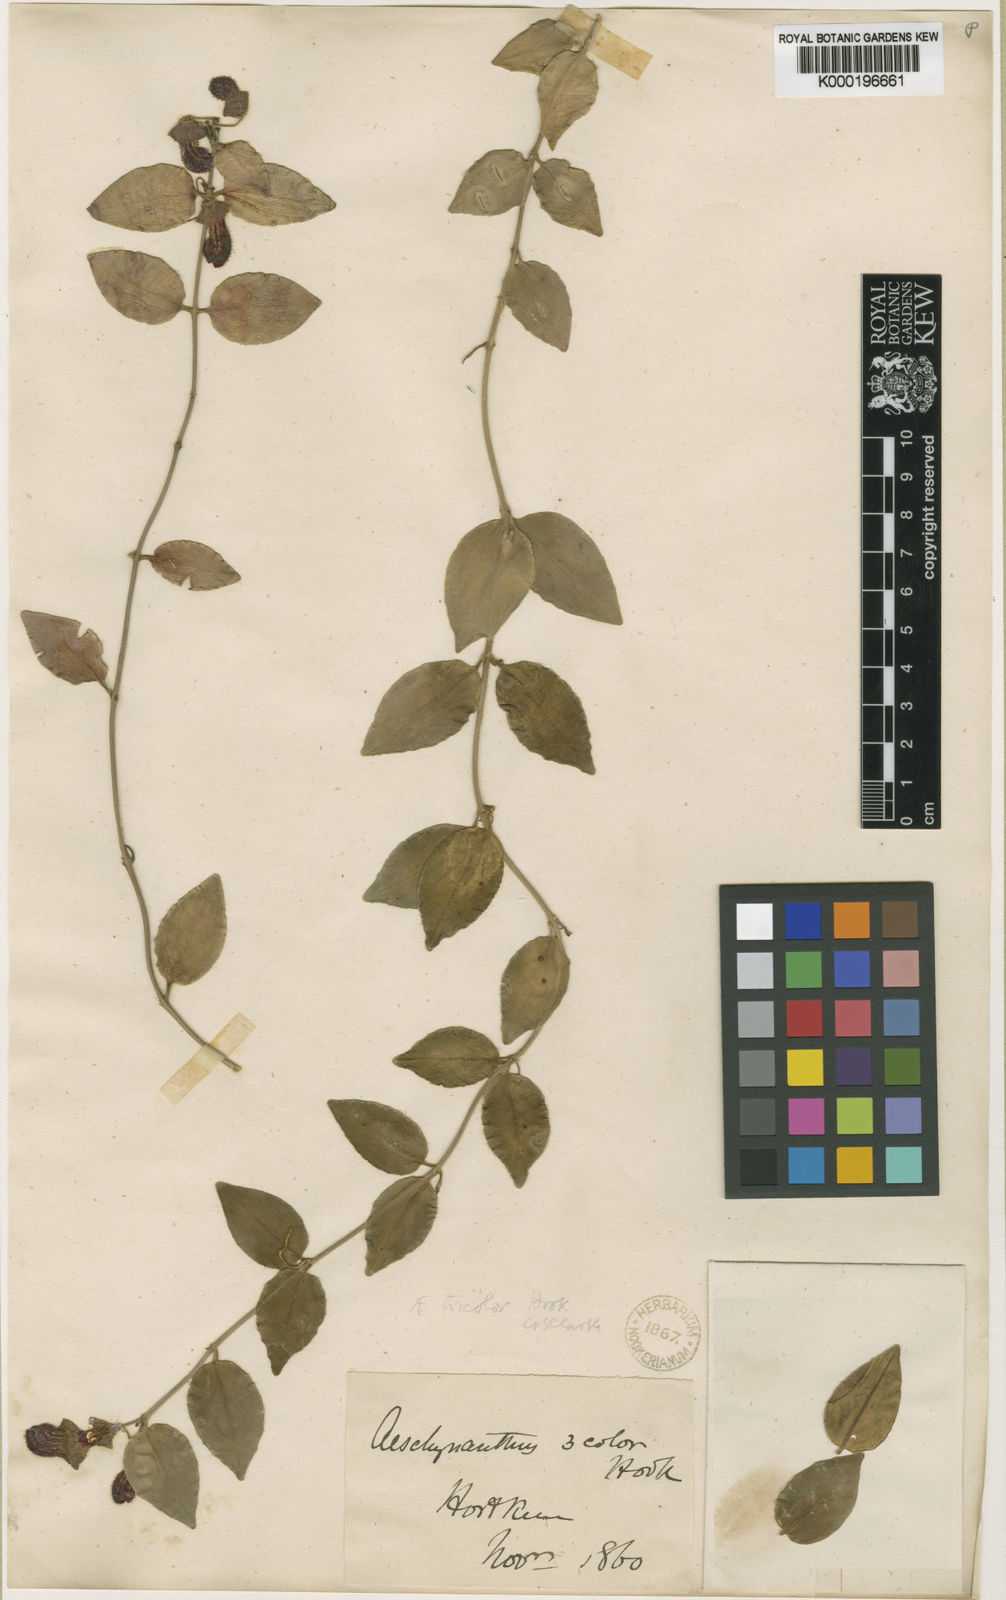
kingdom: Plantae
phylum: Tracheophyta
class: Magnoliopsida
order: Lamiales
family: Gesneriaceae
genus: Aeschynanthus
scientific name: Aeschynanthus tricolor
